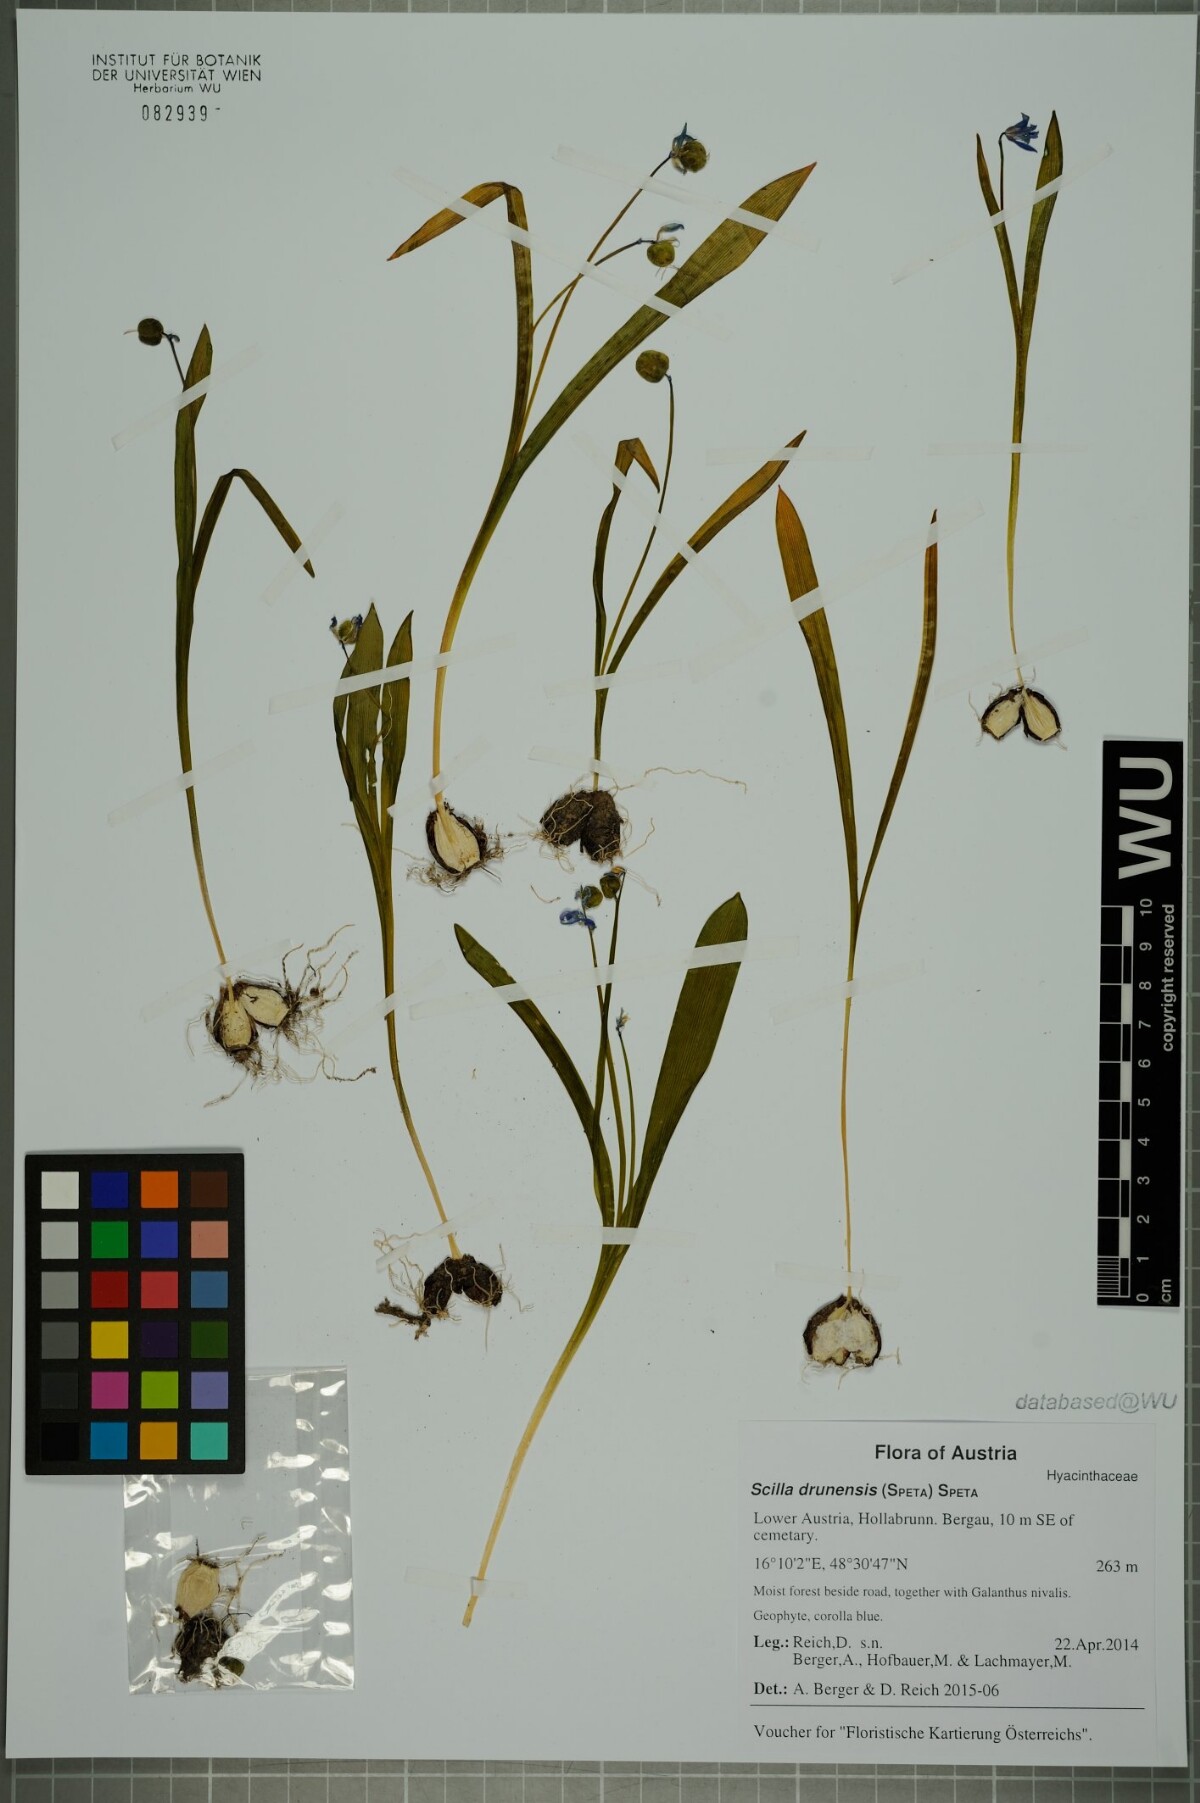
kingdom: Plantae
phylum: Tracheophyta
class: Liliopsida
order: Asparagales
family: Asparagaceae
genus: Scilla
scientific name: Scilla bifolia
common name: Alpine squill
